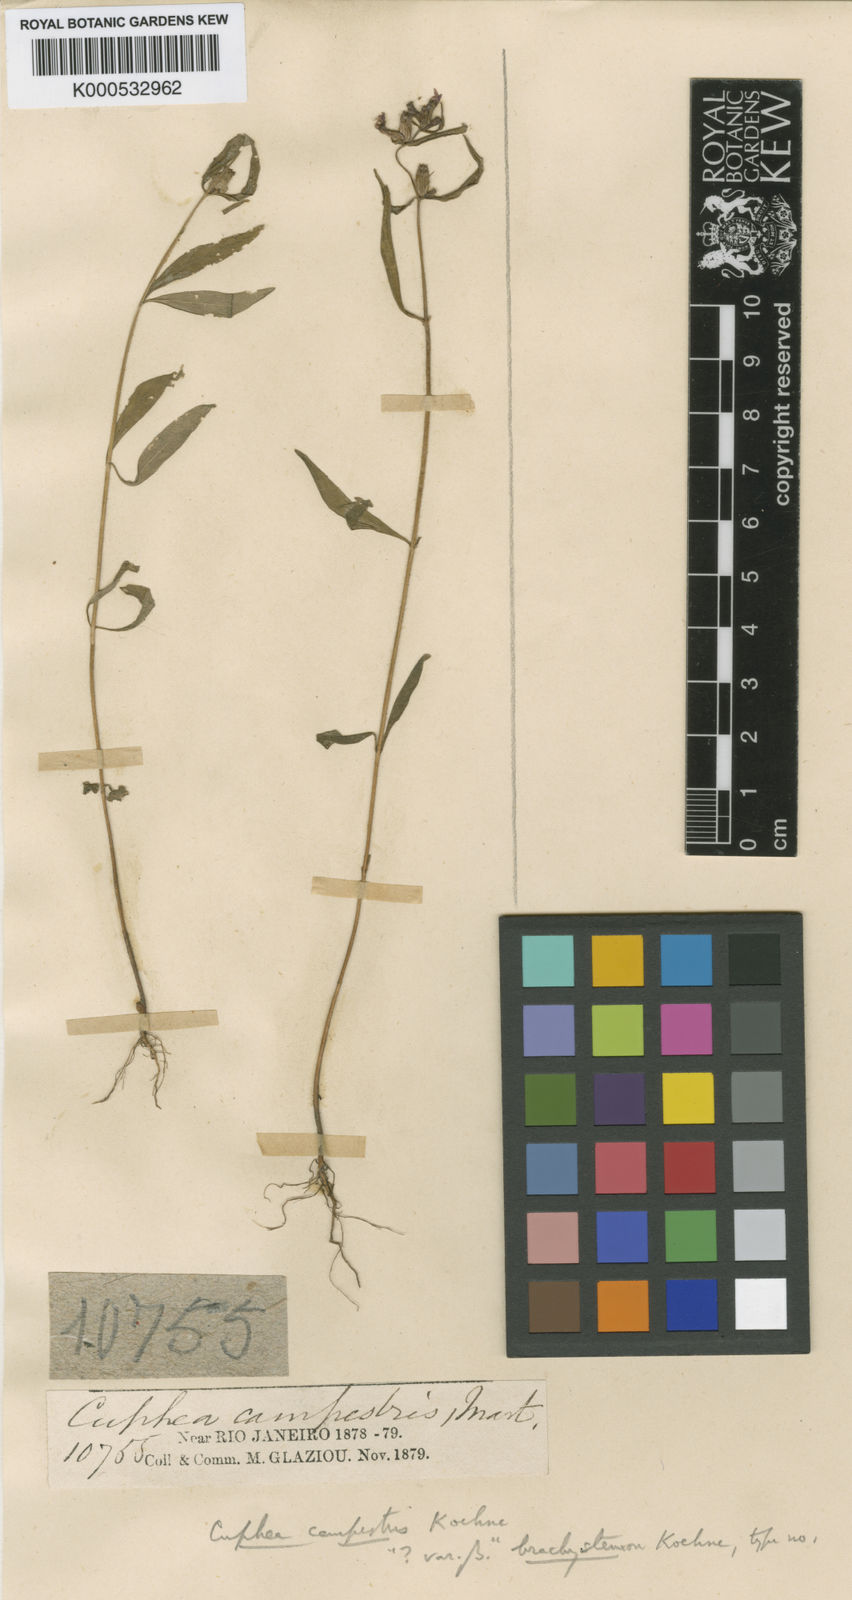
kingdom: Plantae
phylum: Tracheophyta
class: Magnoliopsida
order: Myrtales
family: Lythraceae
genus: Cuphea
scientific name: Cuphea campestris
